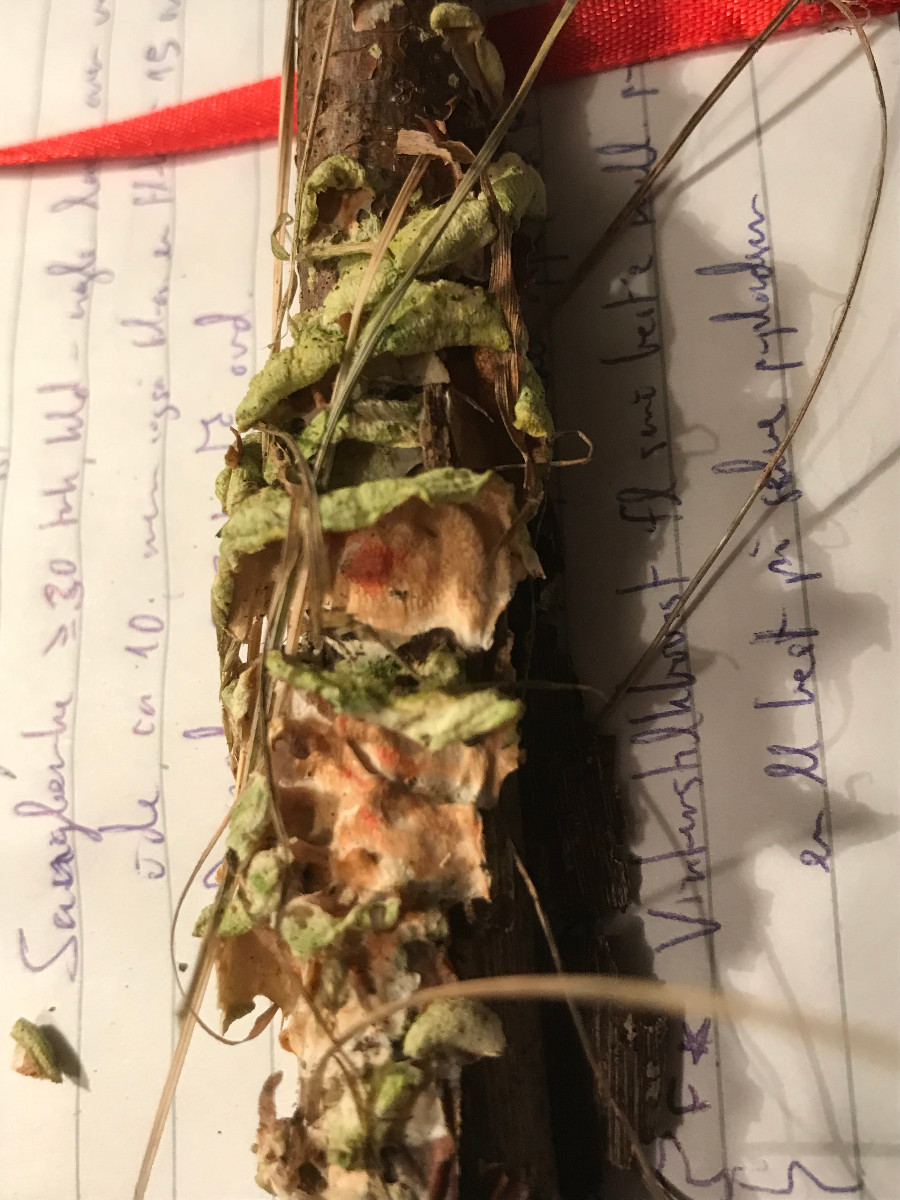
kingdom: Fungi
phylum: Basidiomycota
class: Agaricomycetes
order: Polyporales
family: Irpicaceae
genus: Byssomerulius
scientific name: Byssomerulius corium
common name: læder-åresvamp
